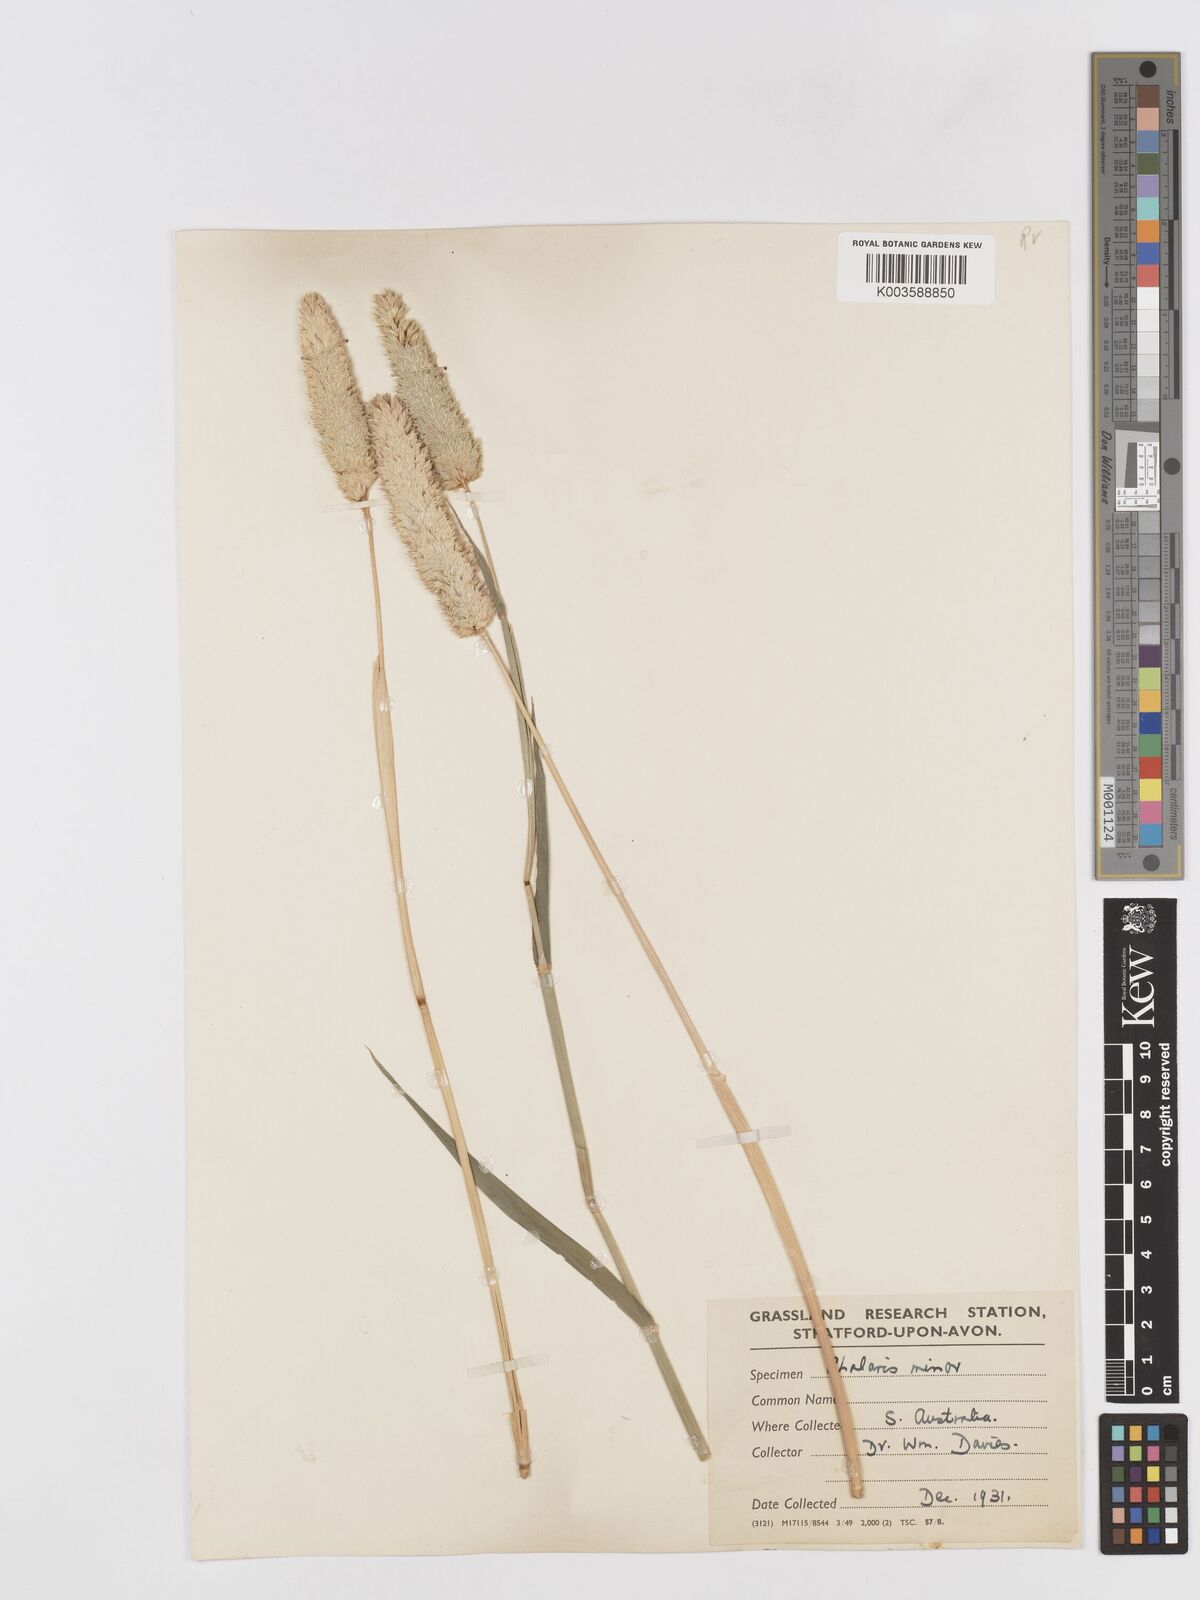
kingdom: Plantae
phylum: Tracheophyta
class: Liliopsida
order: Poales
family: Poaceae
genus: Phalaris
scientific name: Phalaris minor
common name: Littleseed canarygrass
